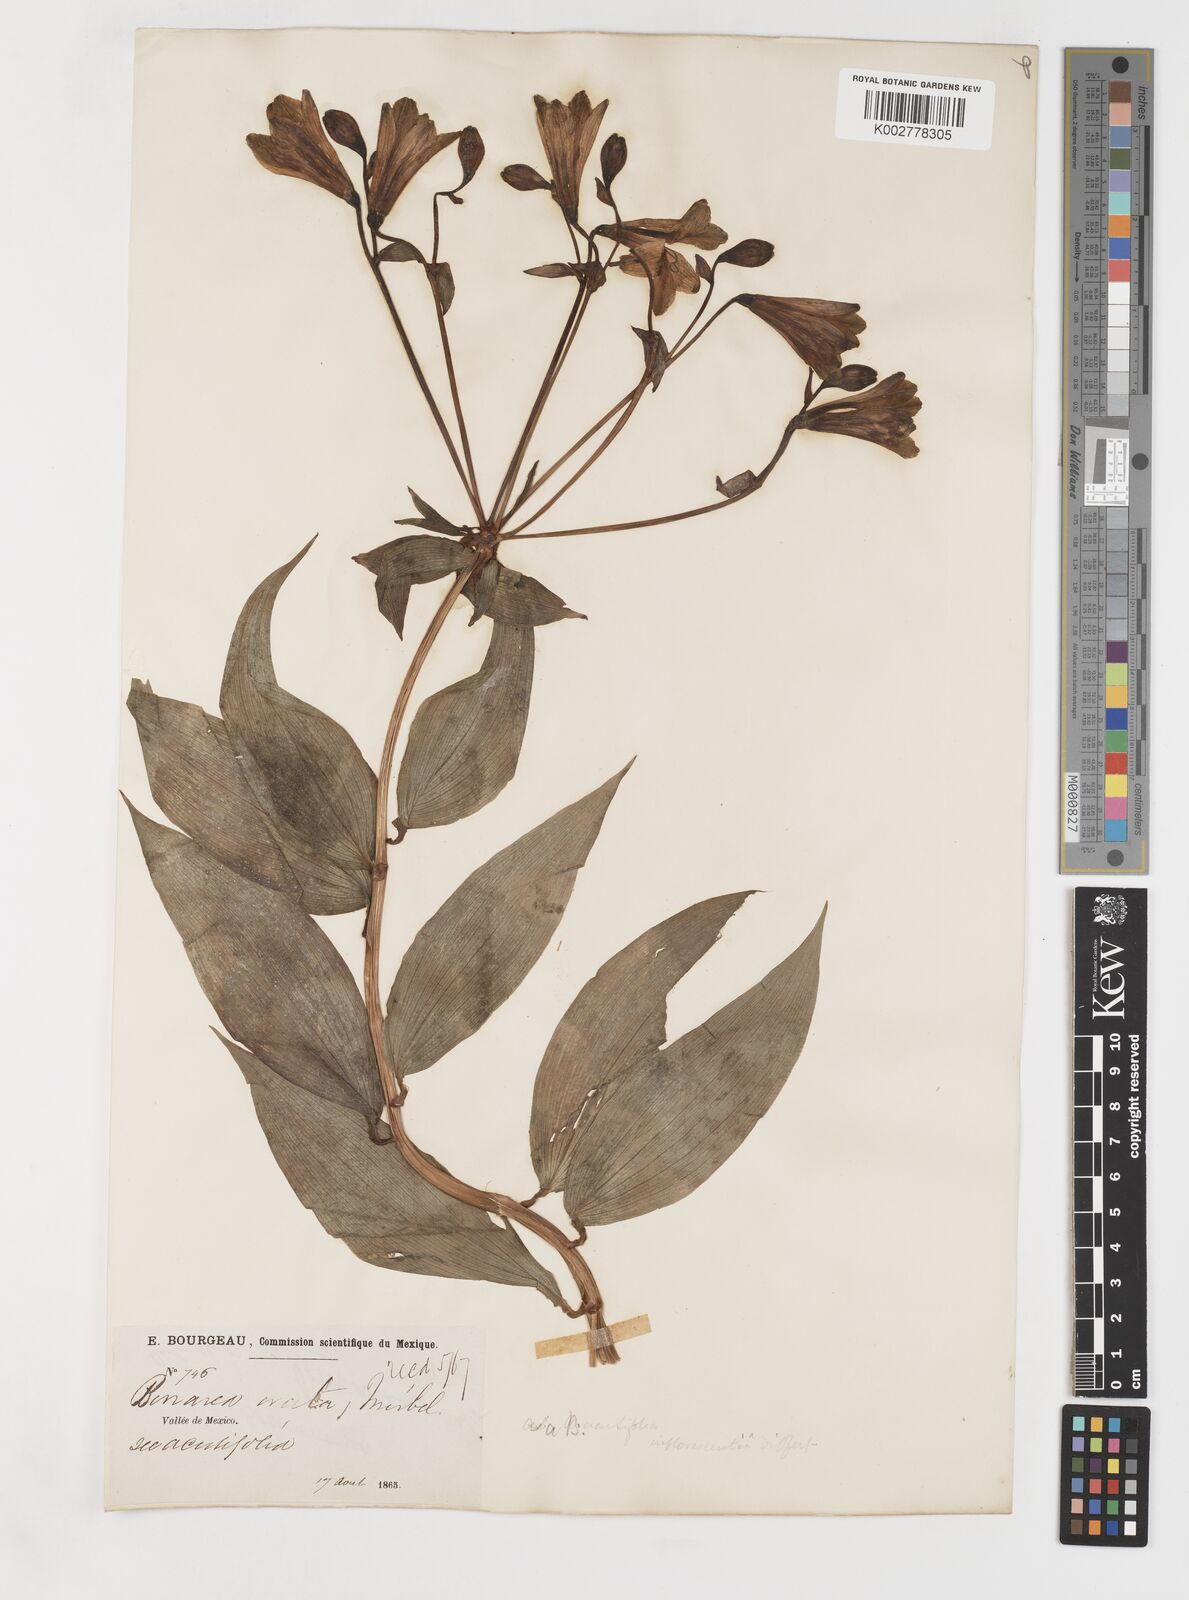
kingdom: Plantae
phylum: Tracheophyta
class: Liliopsida
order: Liliales
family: Alstroemeriaceae
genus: Bomarea
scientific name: Bomarea edulis
